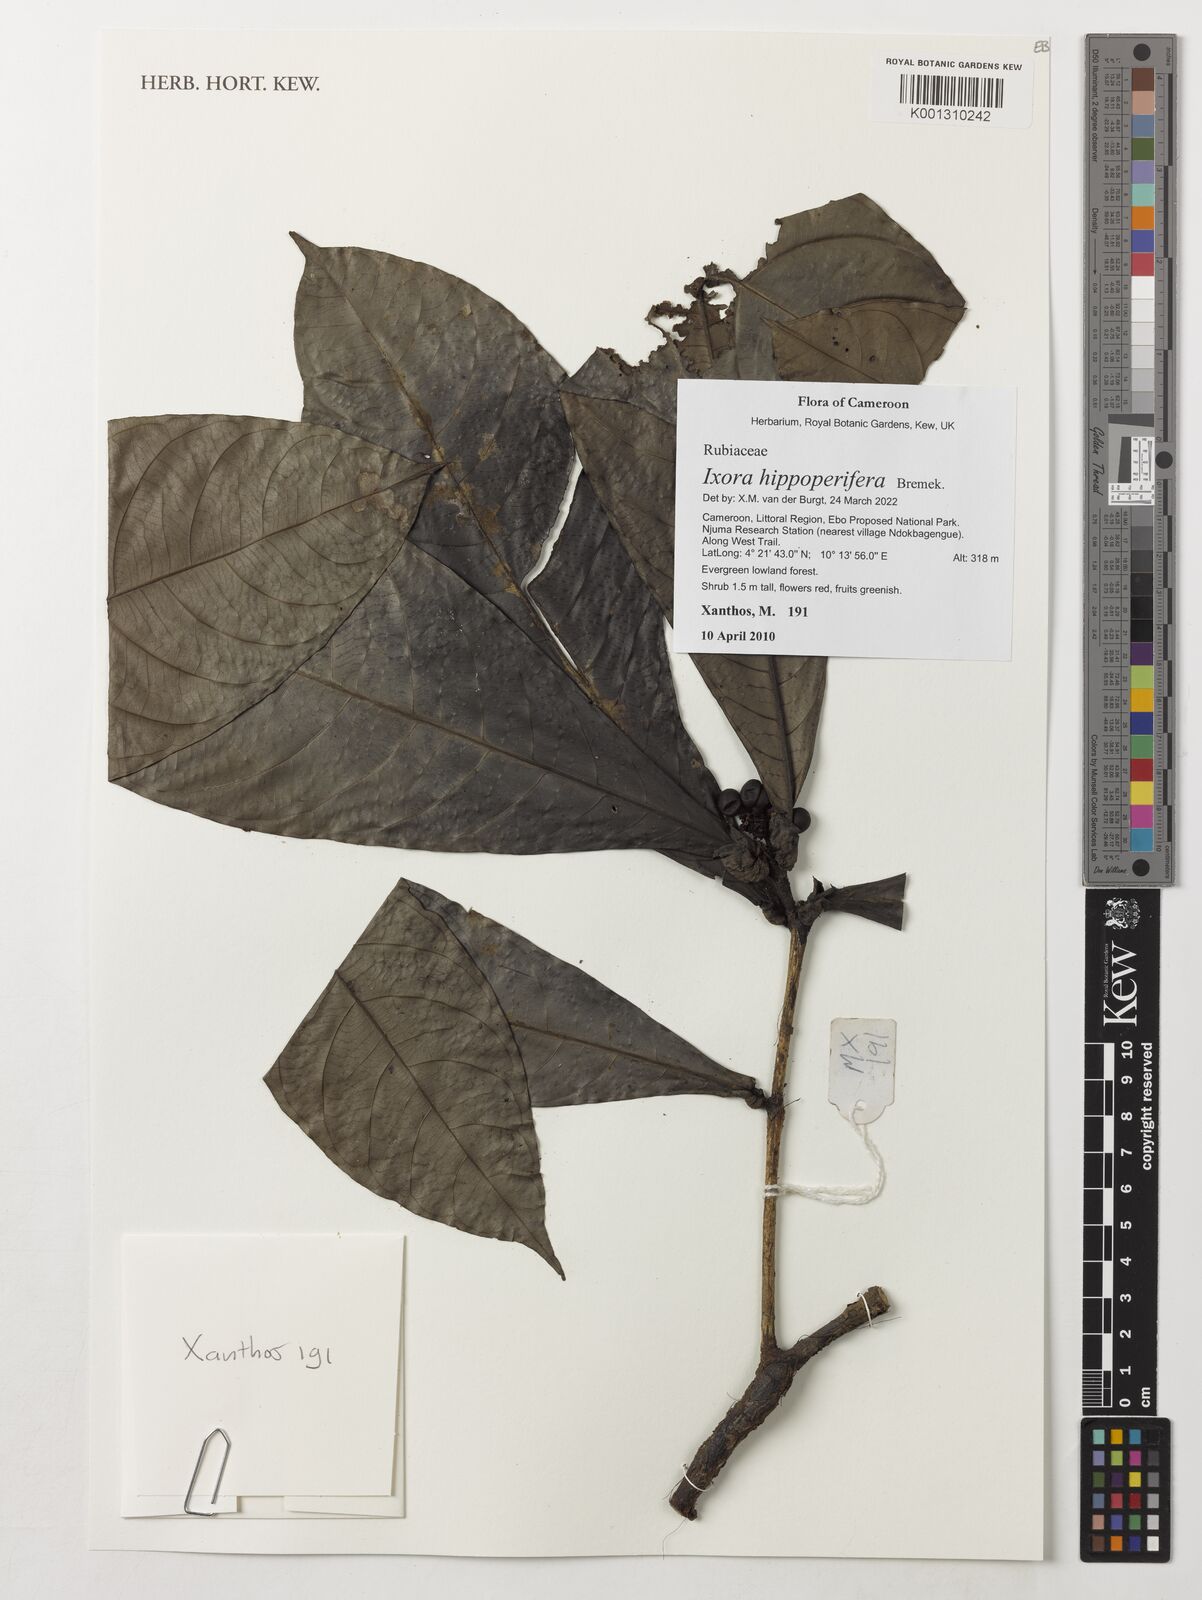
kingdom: Plantae
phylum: Tracheophyta
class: Magnoliopsida
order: Gentianales
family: Rubiaceae
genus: Ixora
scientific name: Ixora hippoperifera
